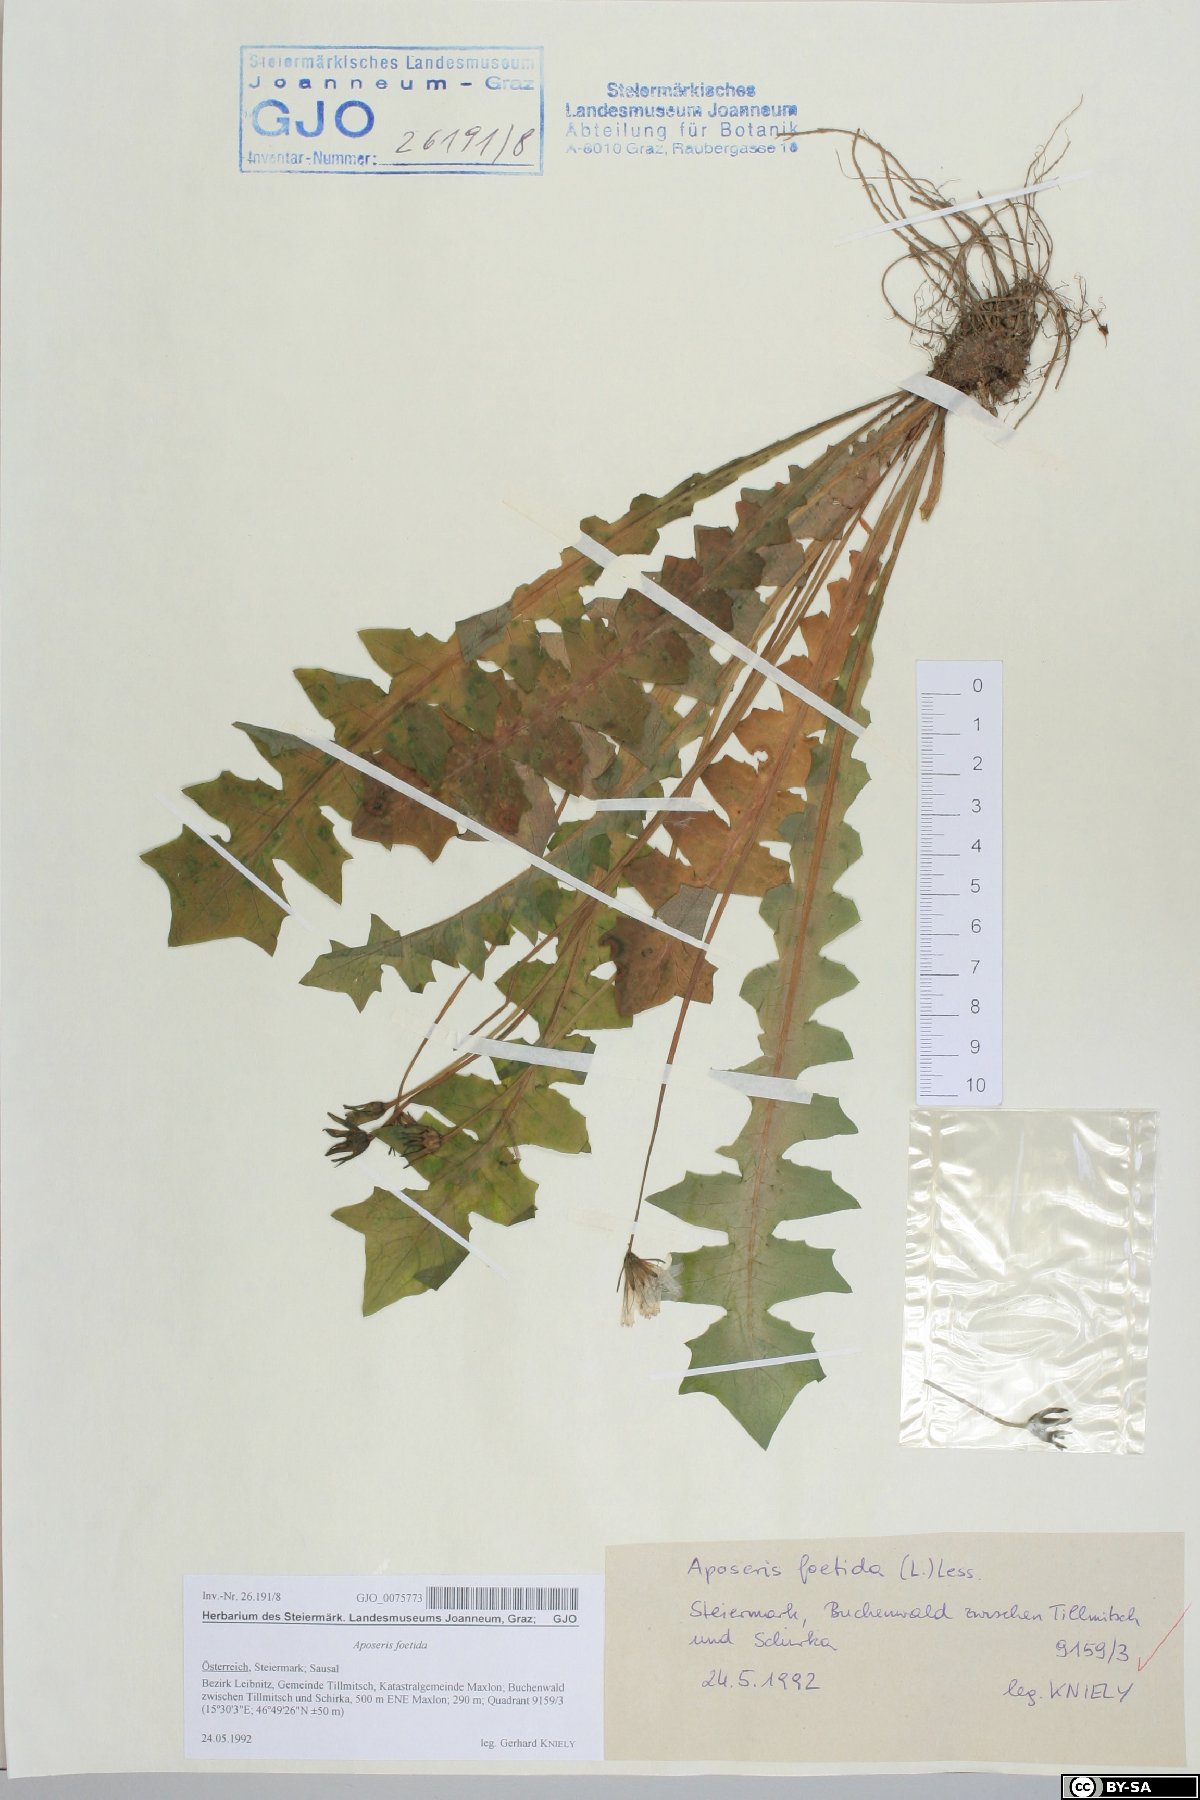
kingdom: Plantae
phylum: Tracheophyta
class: Magnoliopsida
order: Asterales
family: Asteraceae
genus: Aposeris
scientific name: Aposeris foetida
